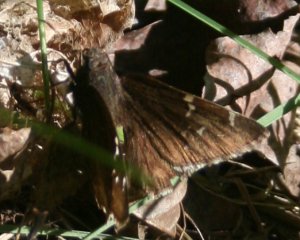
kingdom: Animalia
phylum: Arthropoda
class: Insecta
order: Lepidoptera
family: Hesperiidae
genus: Autochton
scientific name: Autochton
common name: Northern Cloudywing
